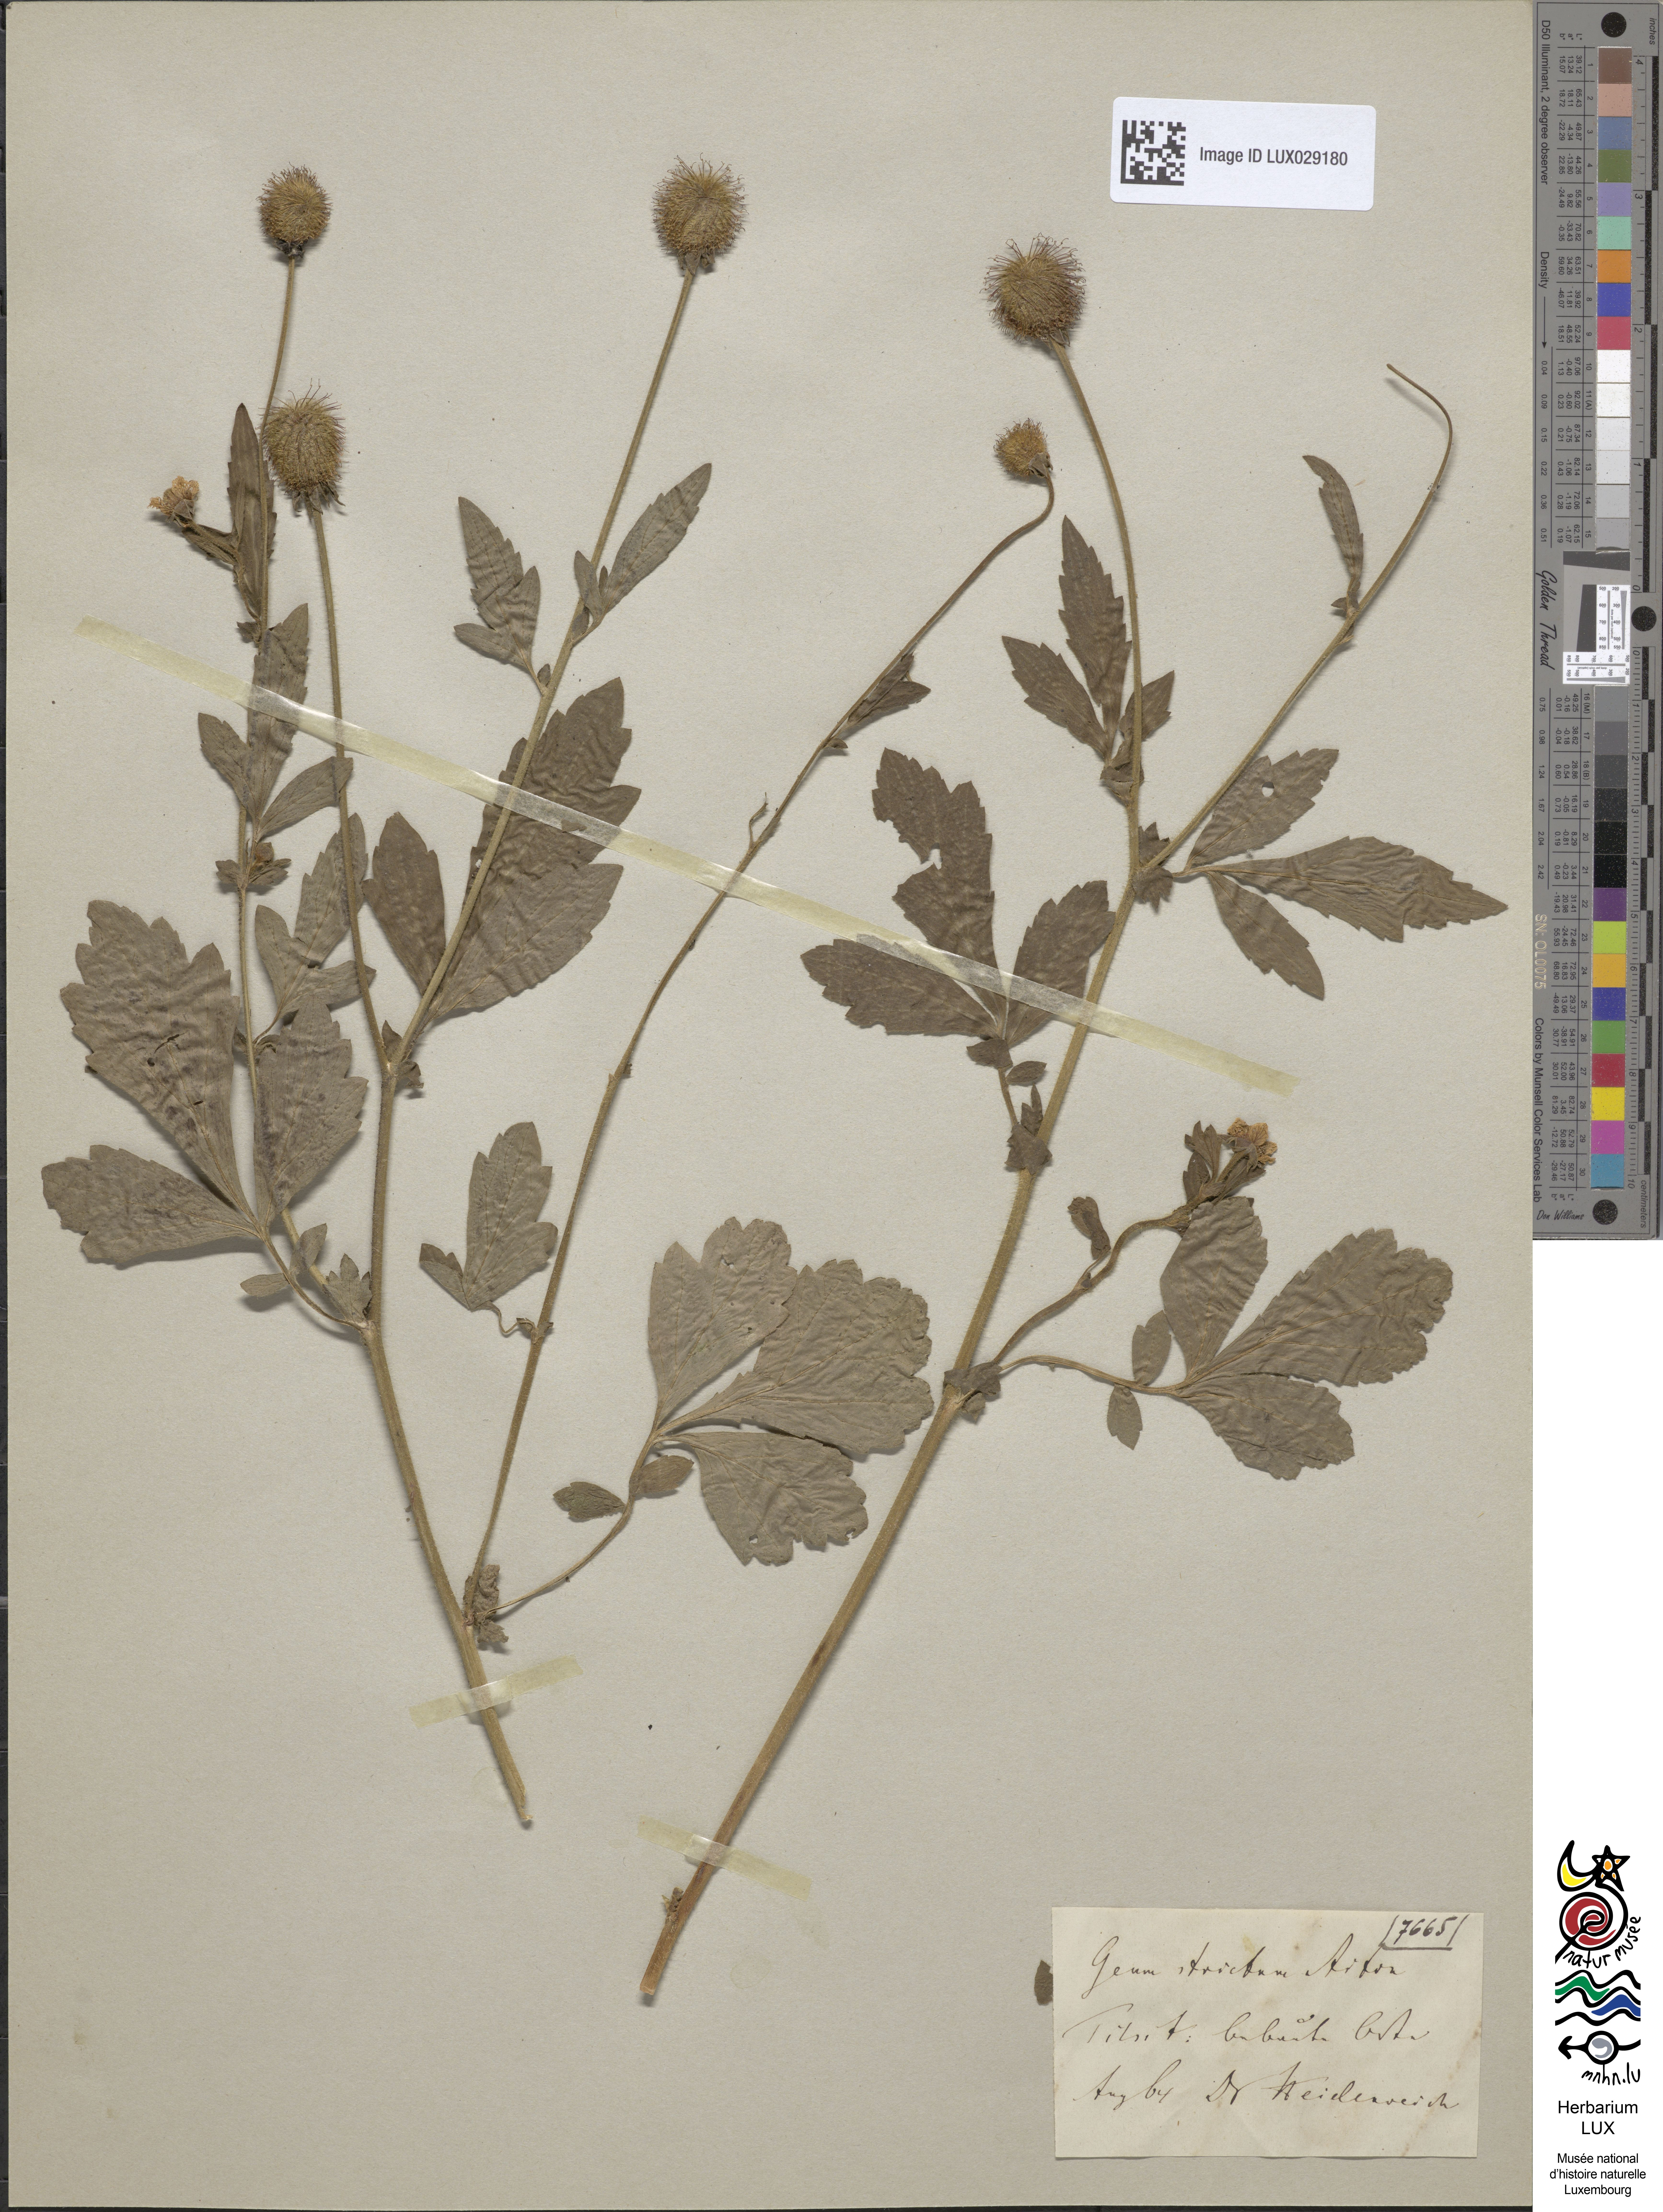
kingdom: Plantae
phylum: Tracheophyta
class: Magnoliopsida
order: Rosales
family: Rosaceae
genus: Geum
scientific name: Geum aleppicum
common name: Yellow avens
